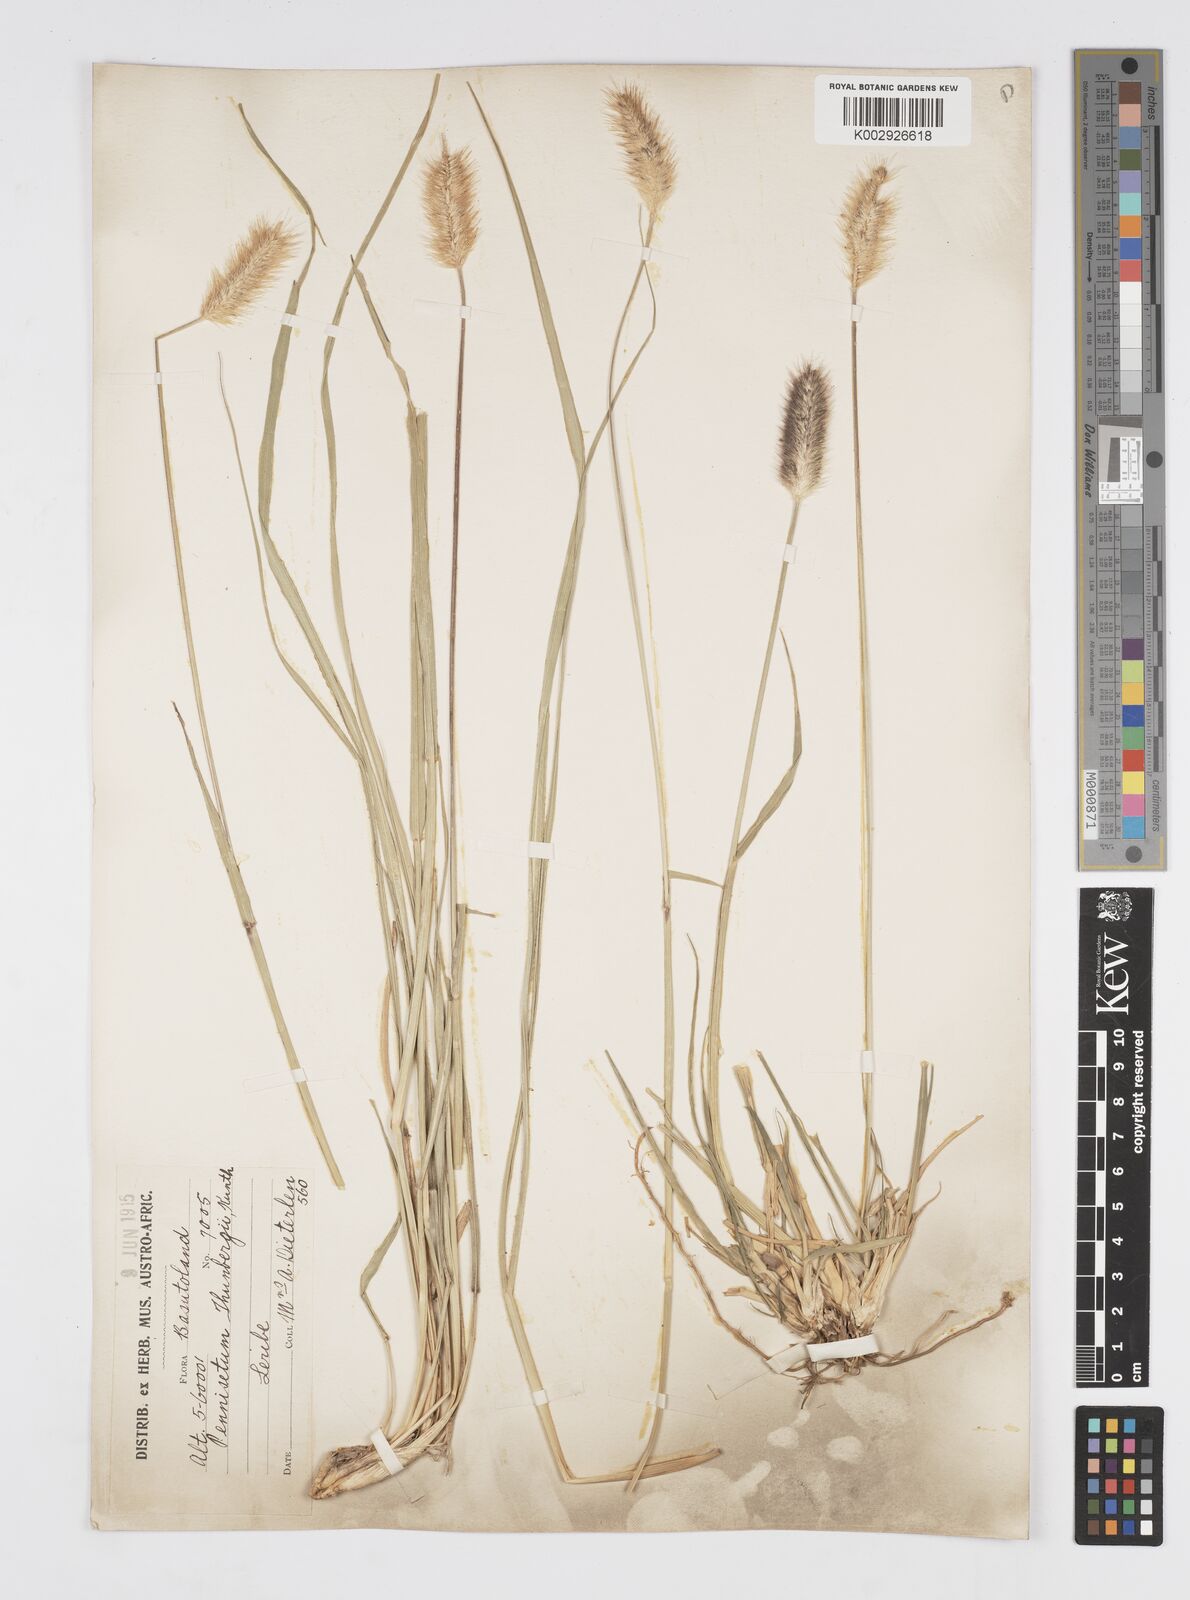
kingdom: Plantae
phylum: Tracheophyta
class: Liliopsida
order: Poales
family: Poaceae
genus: Cenchrus
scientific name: Cenchrus geniculatus
